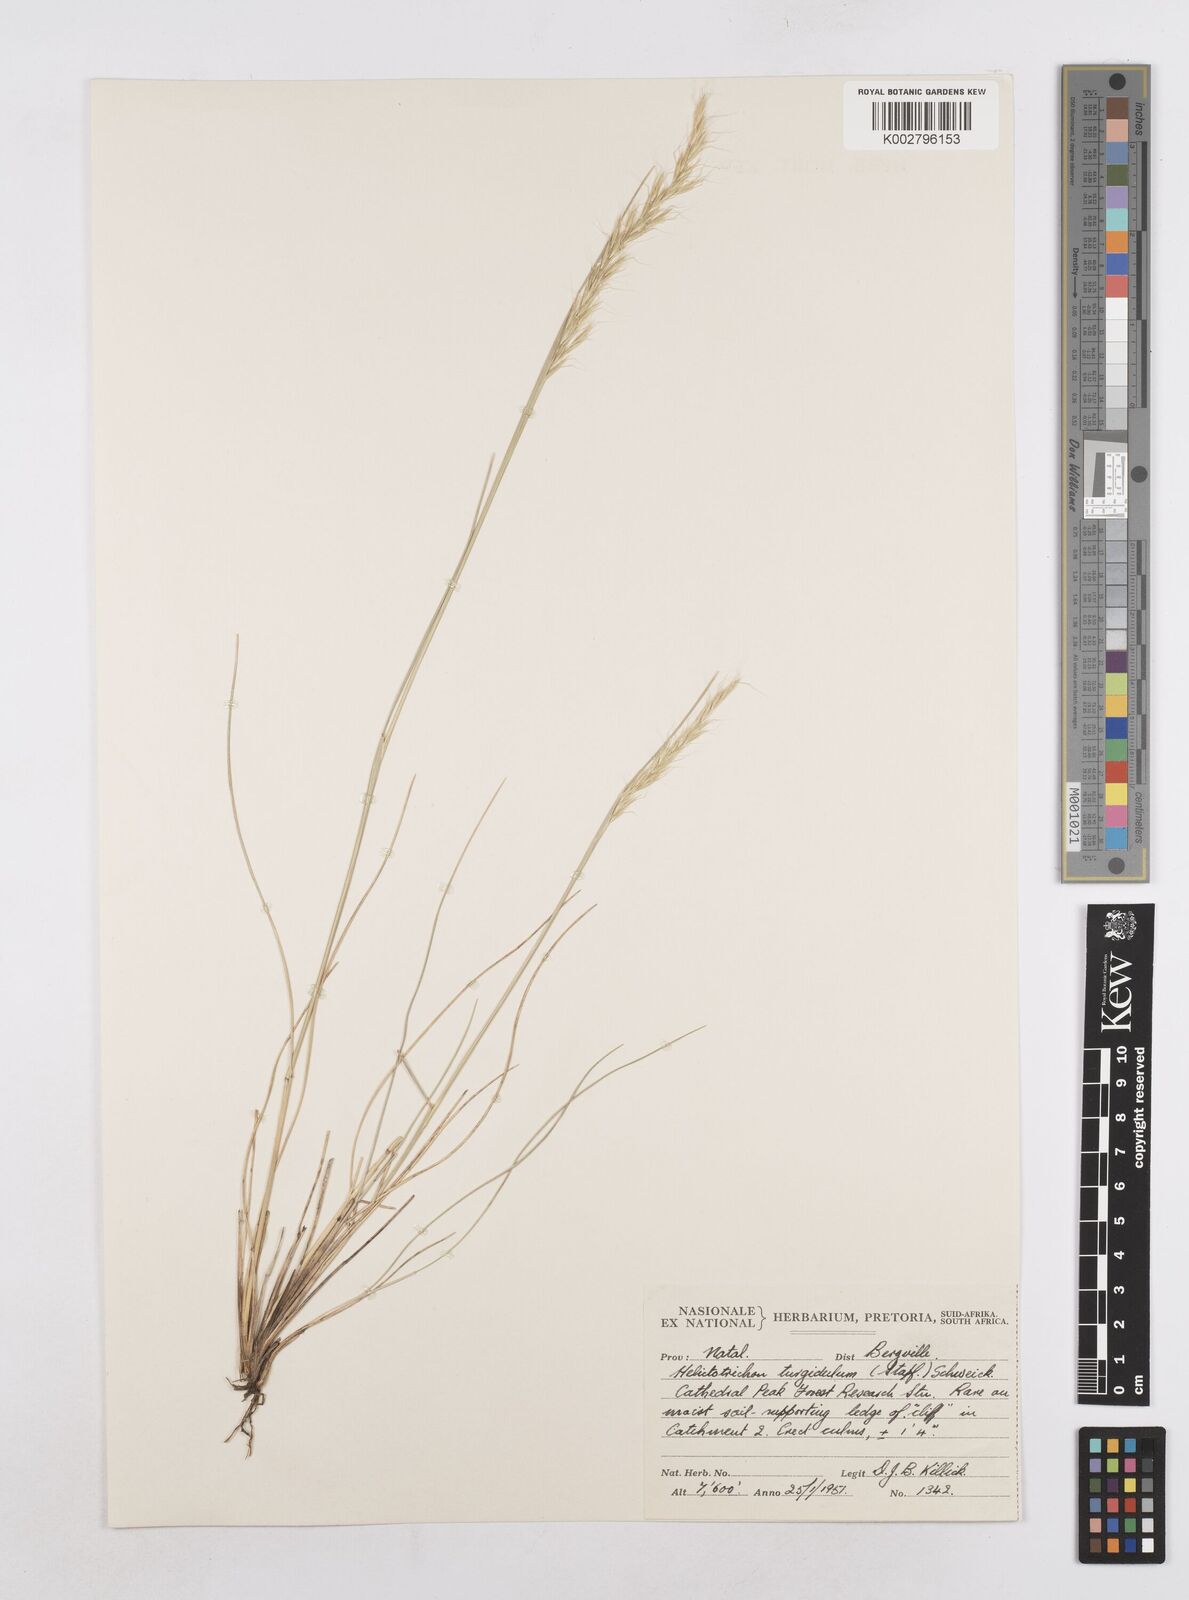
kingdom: Plantae
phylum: Tracheophyta
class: Liliopsida
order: Poales
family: Poaceae
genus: Trisetopsis
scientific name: Trisetopsis imberbis
